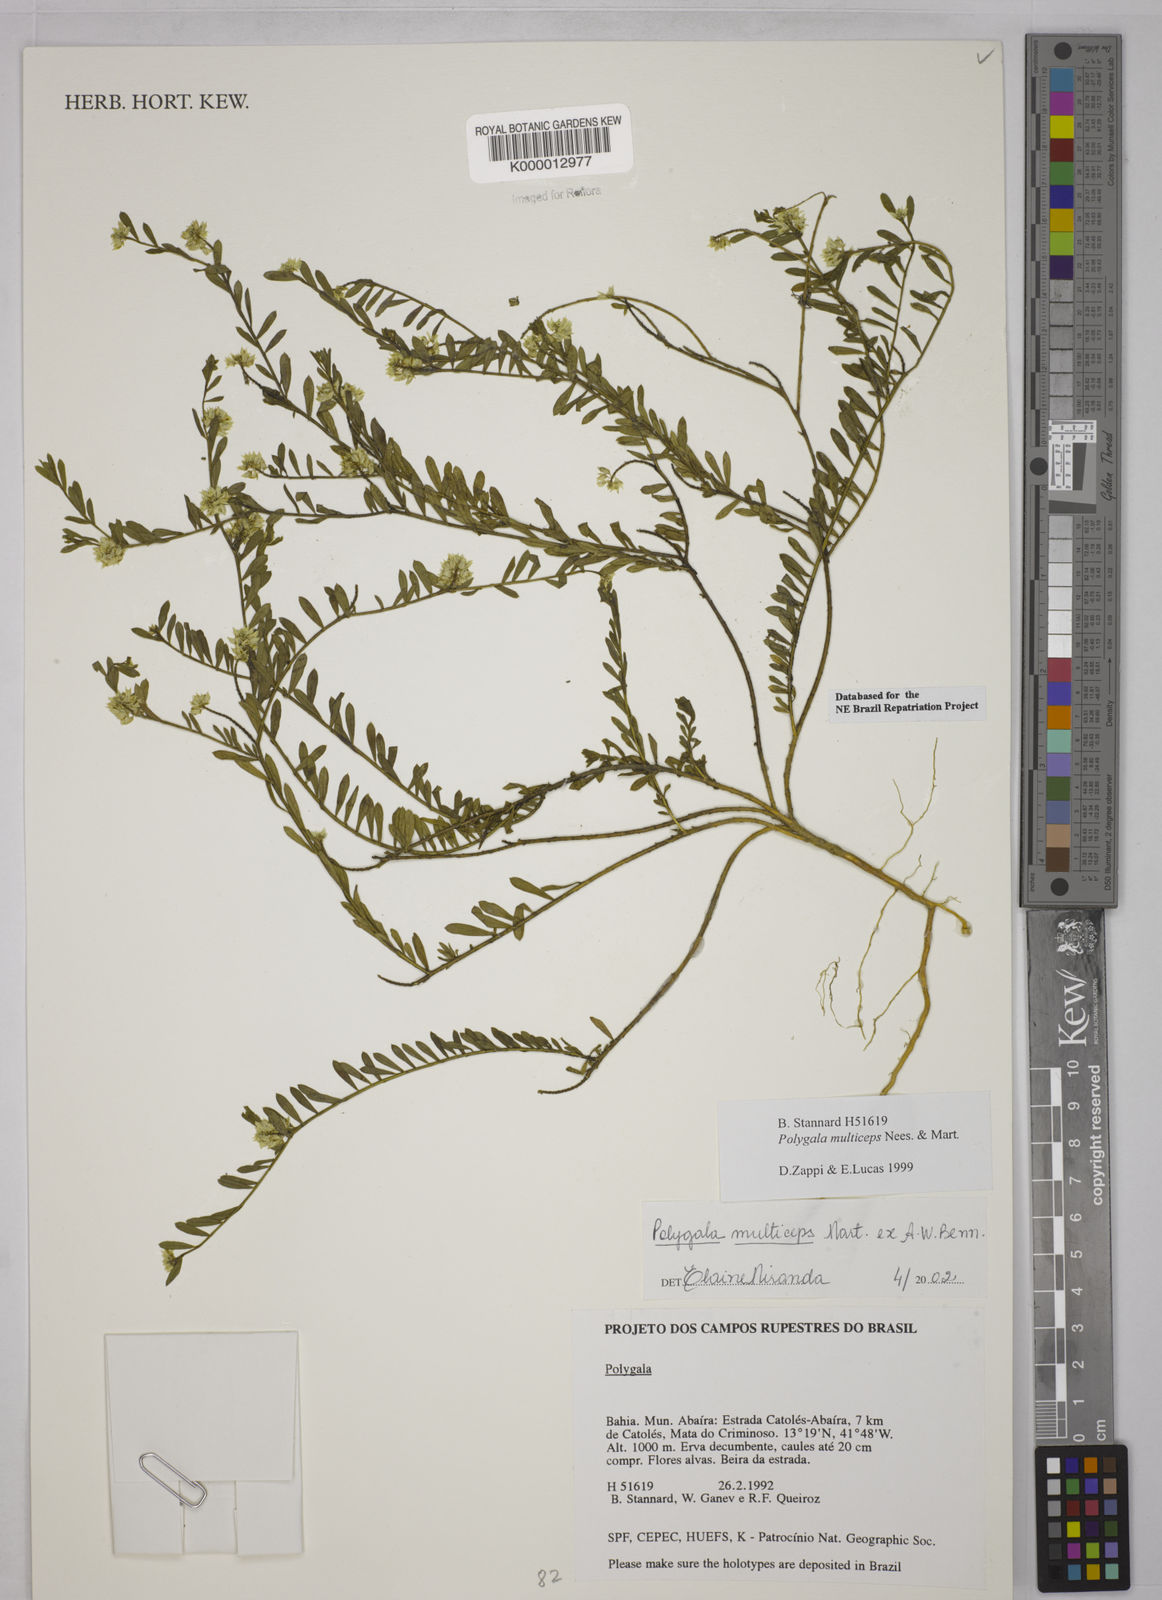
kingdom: Plantae
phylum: Tracheophyta
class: Magnoliopsida
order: Fabales
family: Polygalaceae
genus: Polygala
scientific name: Polygala multiceps
